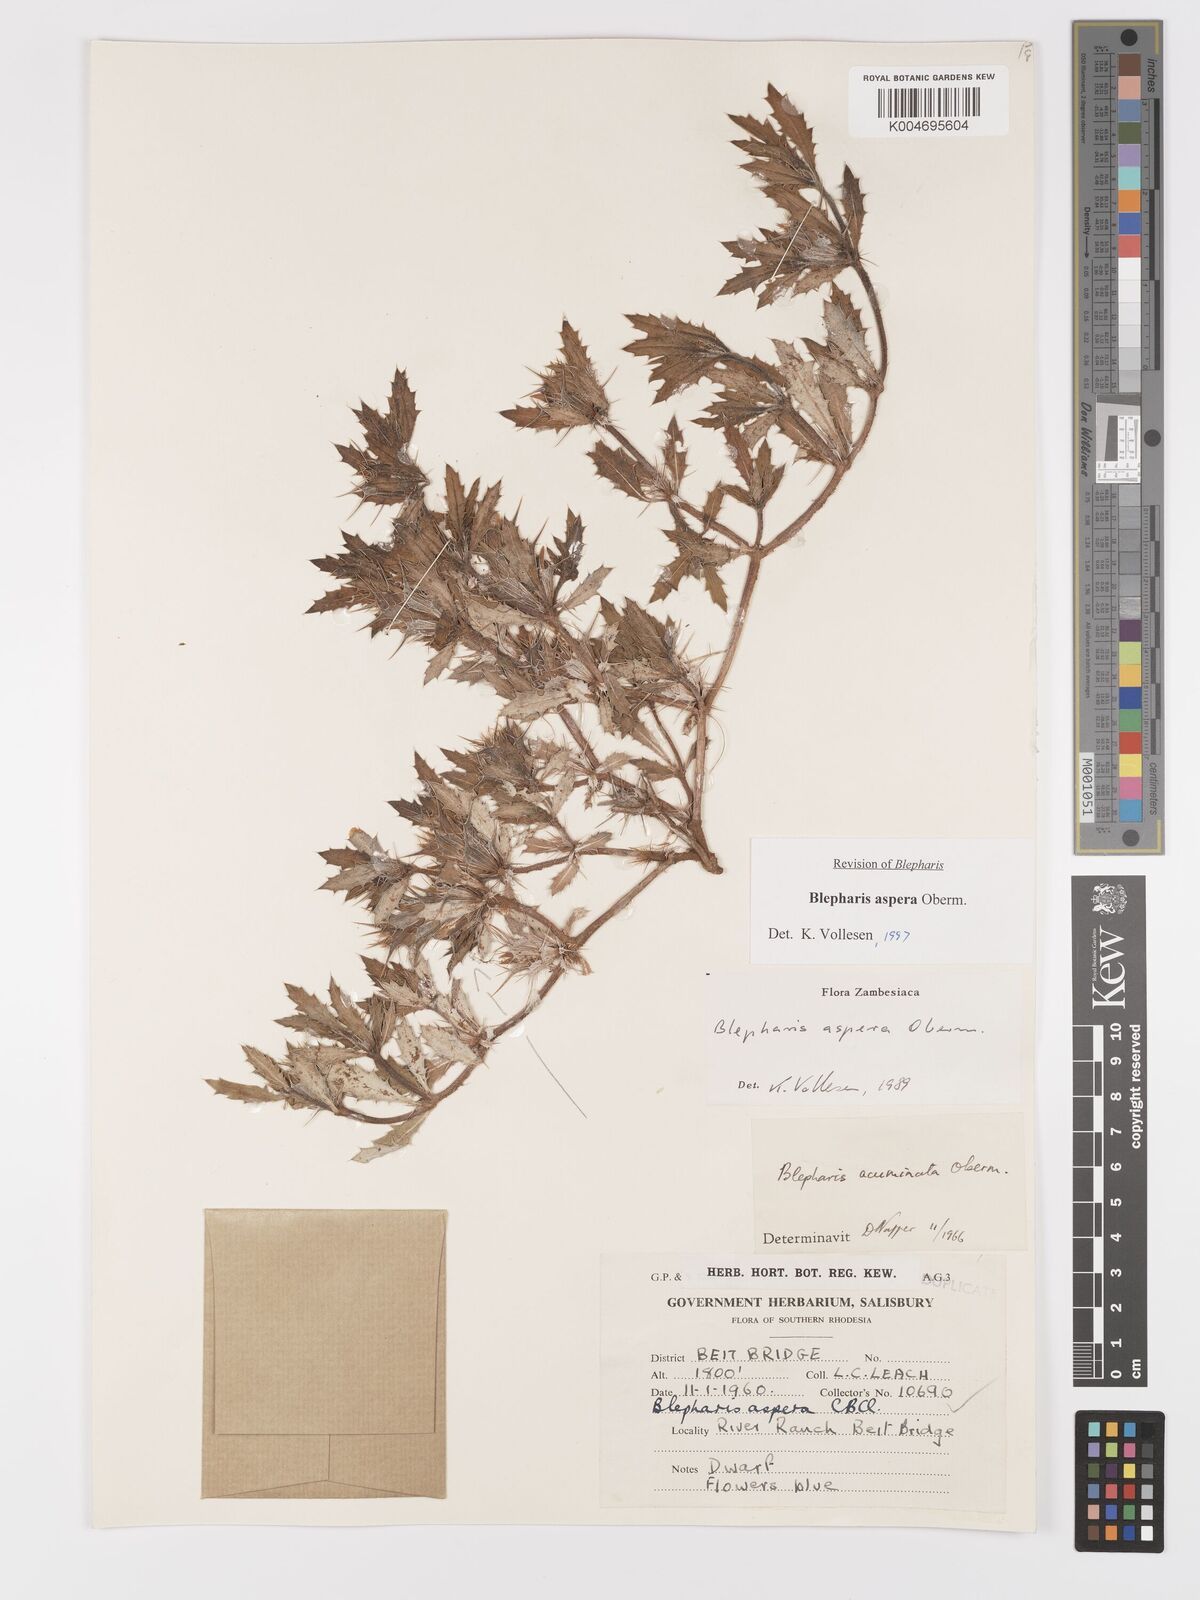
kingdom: Plantae
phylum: Tracheophyta
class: Magnoliopsida
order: Lamiales
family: Acanthaceae
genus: Blepharis
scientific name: Blepharis aspera
